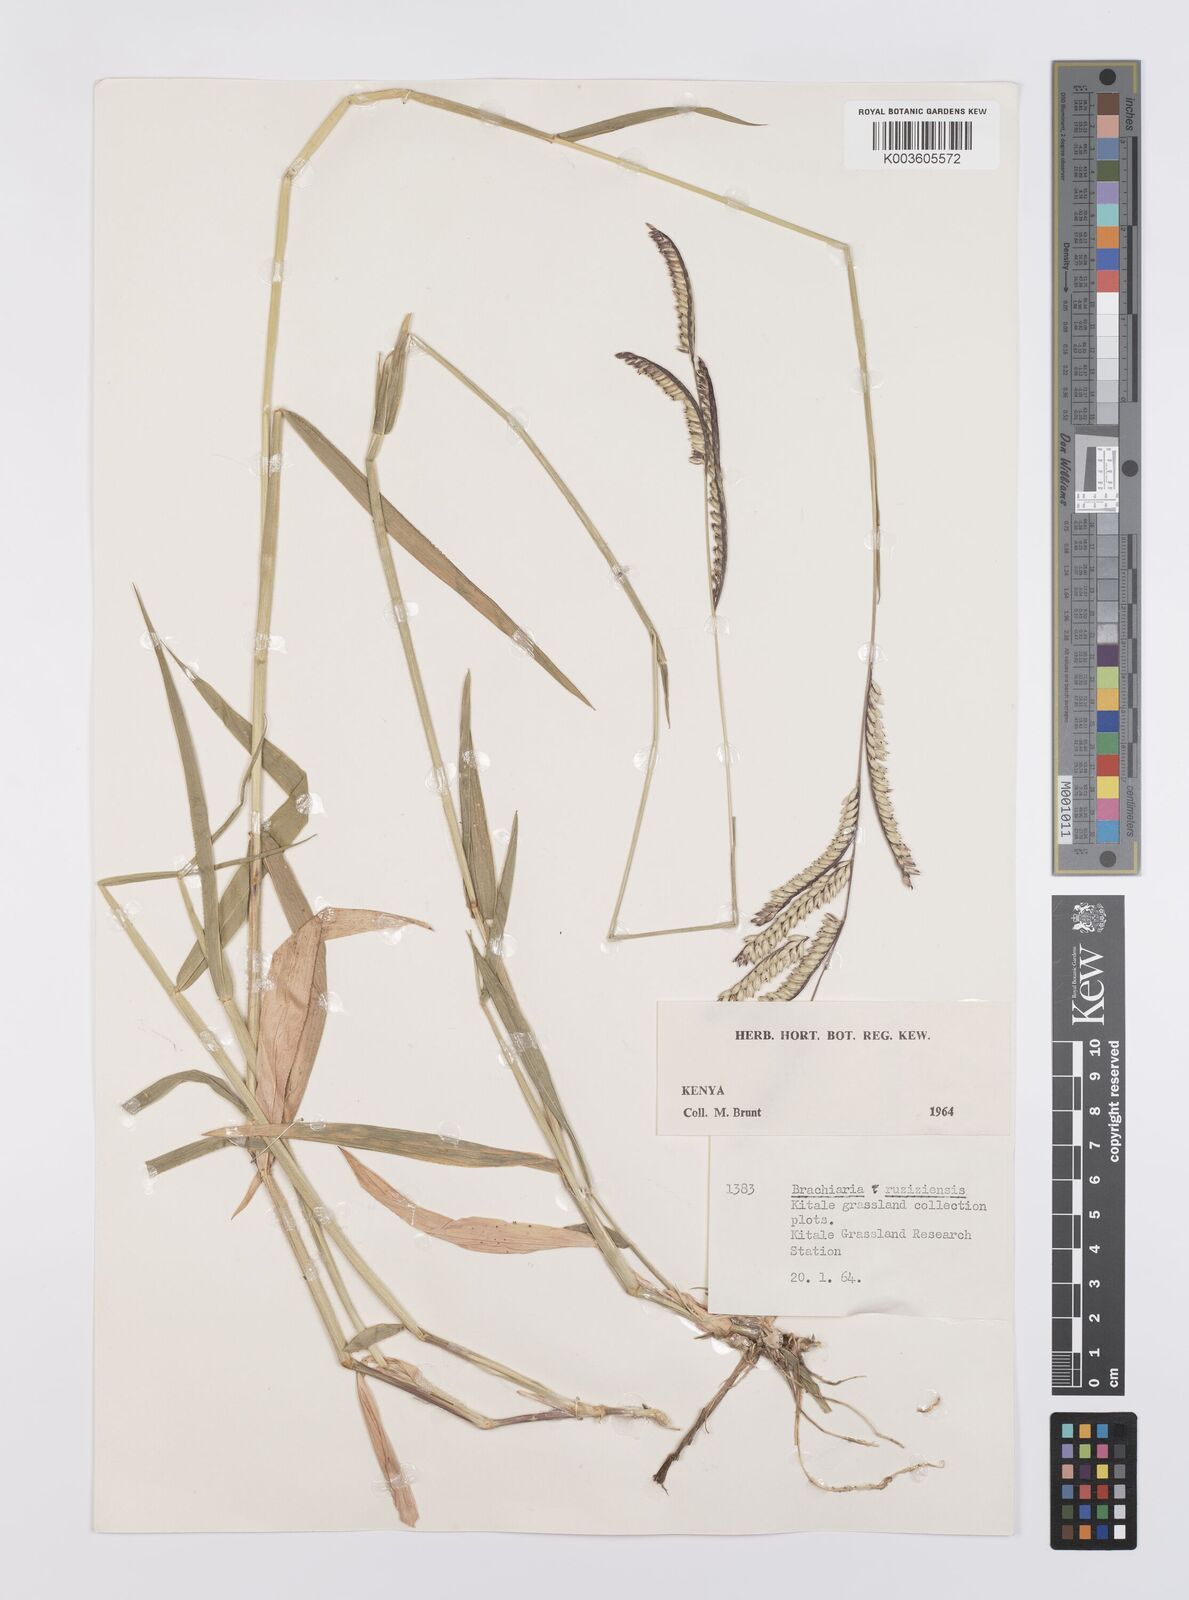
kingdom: Plantae
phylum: Tracheophyta
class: Liliopsida
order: Poales
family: Poaceae
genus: Urochloa
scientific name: Urochloa eminii
